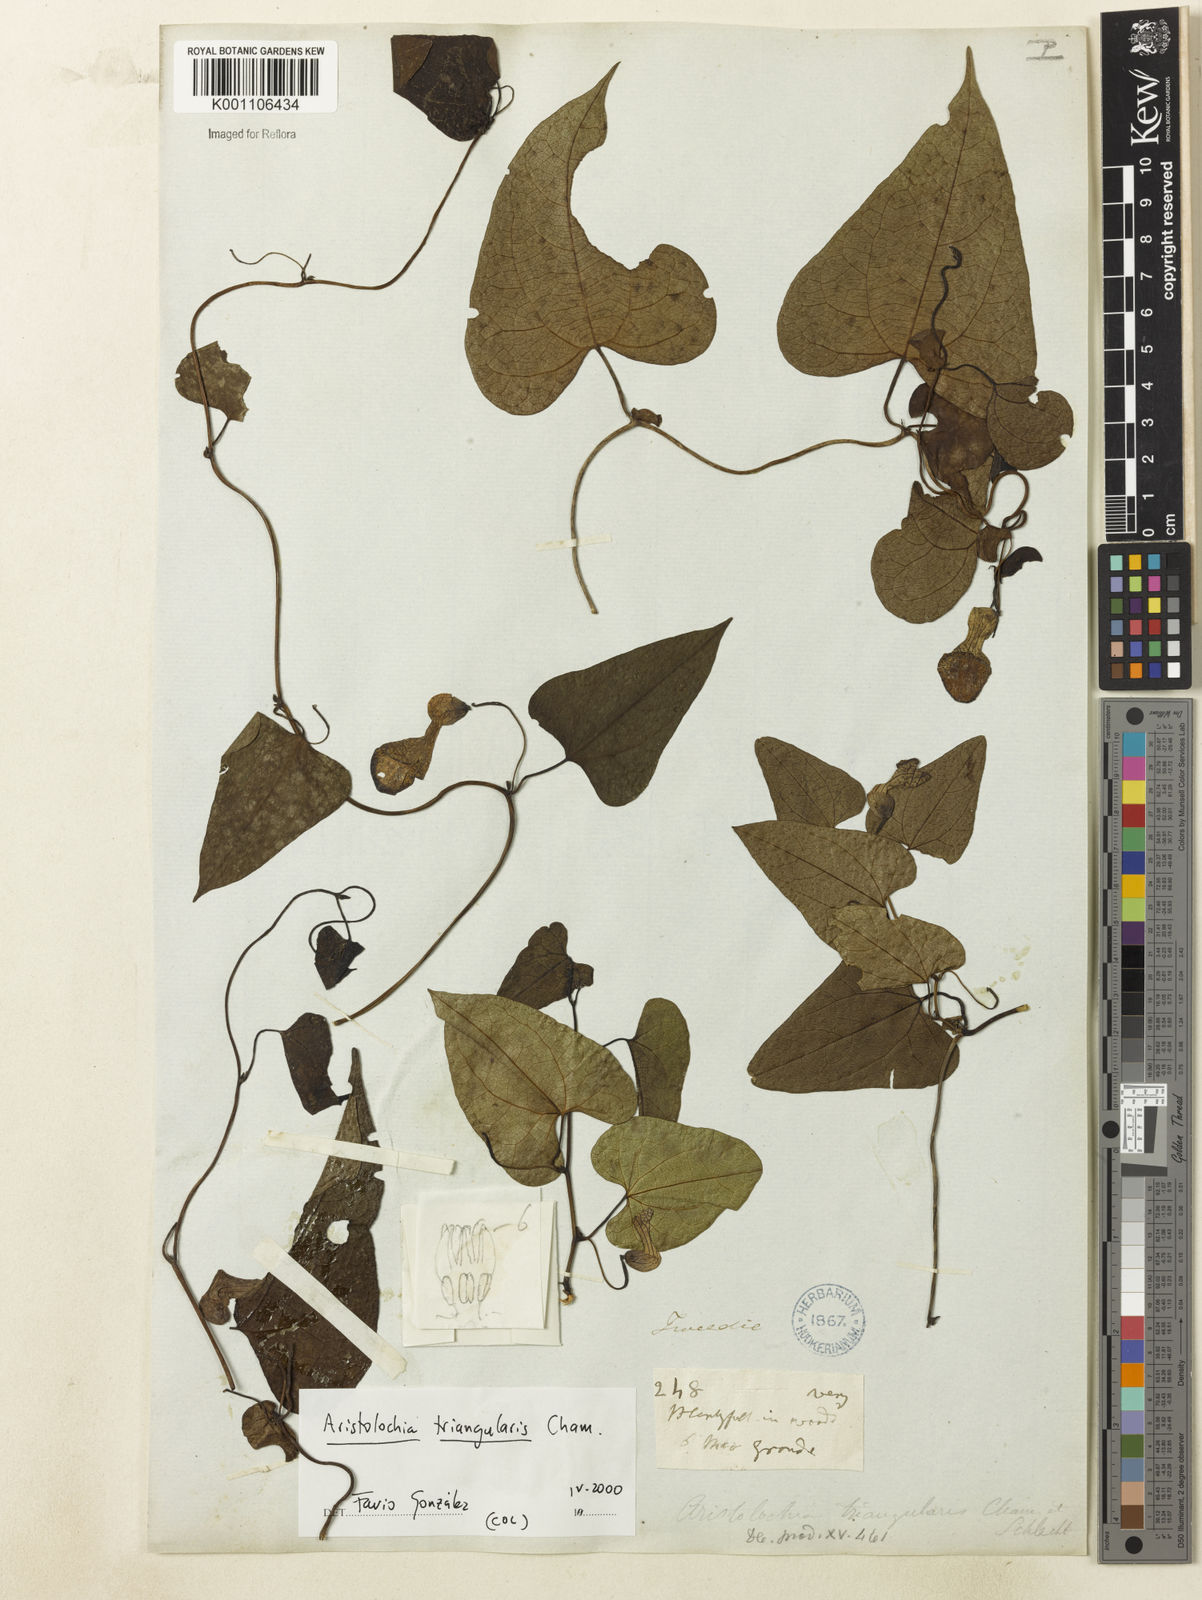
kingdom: Plantae
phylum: Tracheophyta
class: Magnoliopsida
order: Piperales
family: Aristolochiaceae
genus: Aristolochia
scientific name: Aristolochia triangularis
